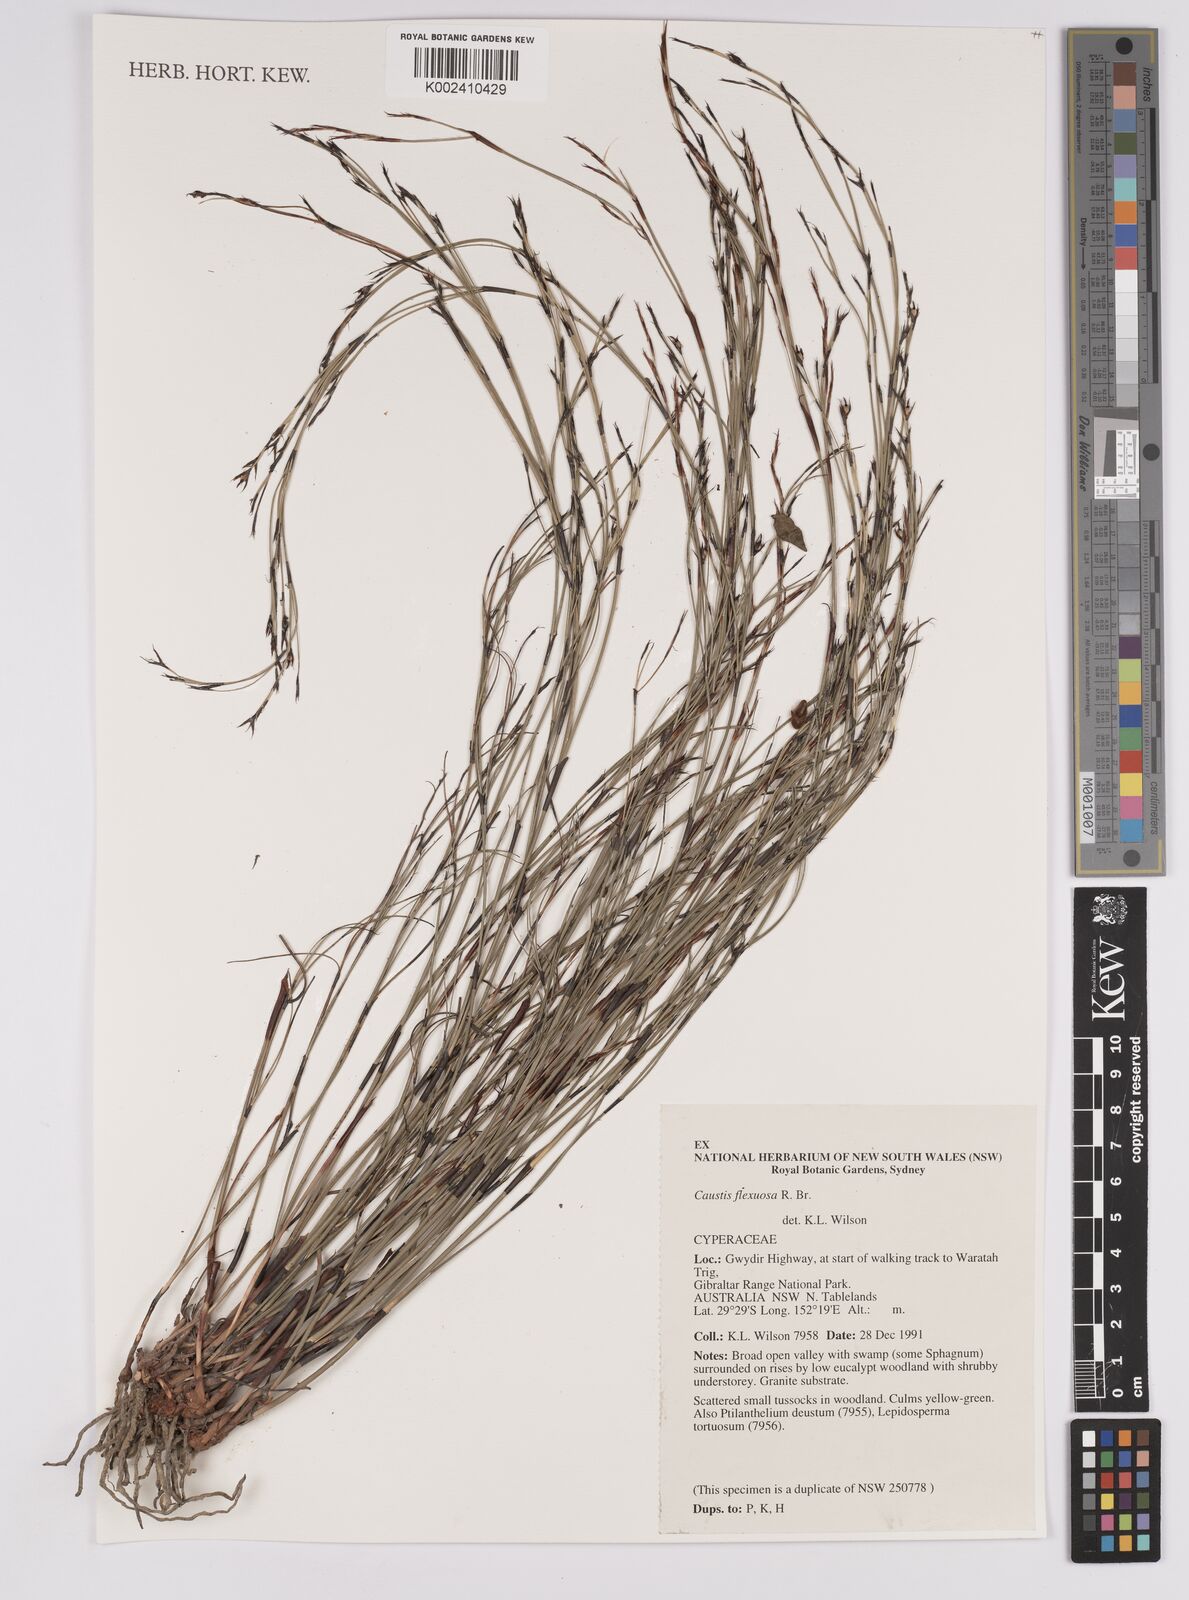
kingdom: Plantae
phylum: Tracheophyta
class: Liliopsida
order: Poales
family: Cyperaceae
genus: Caustis
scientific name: Caustis flexuosa
